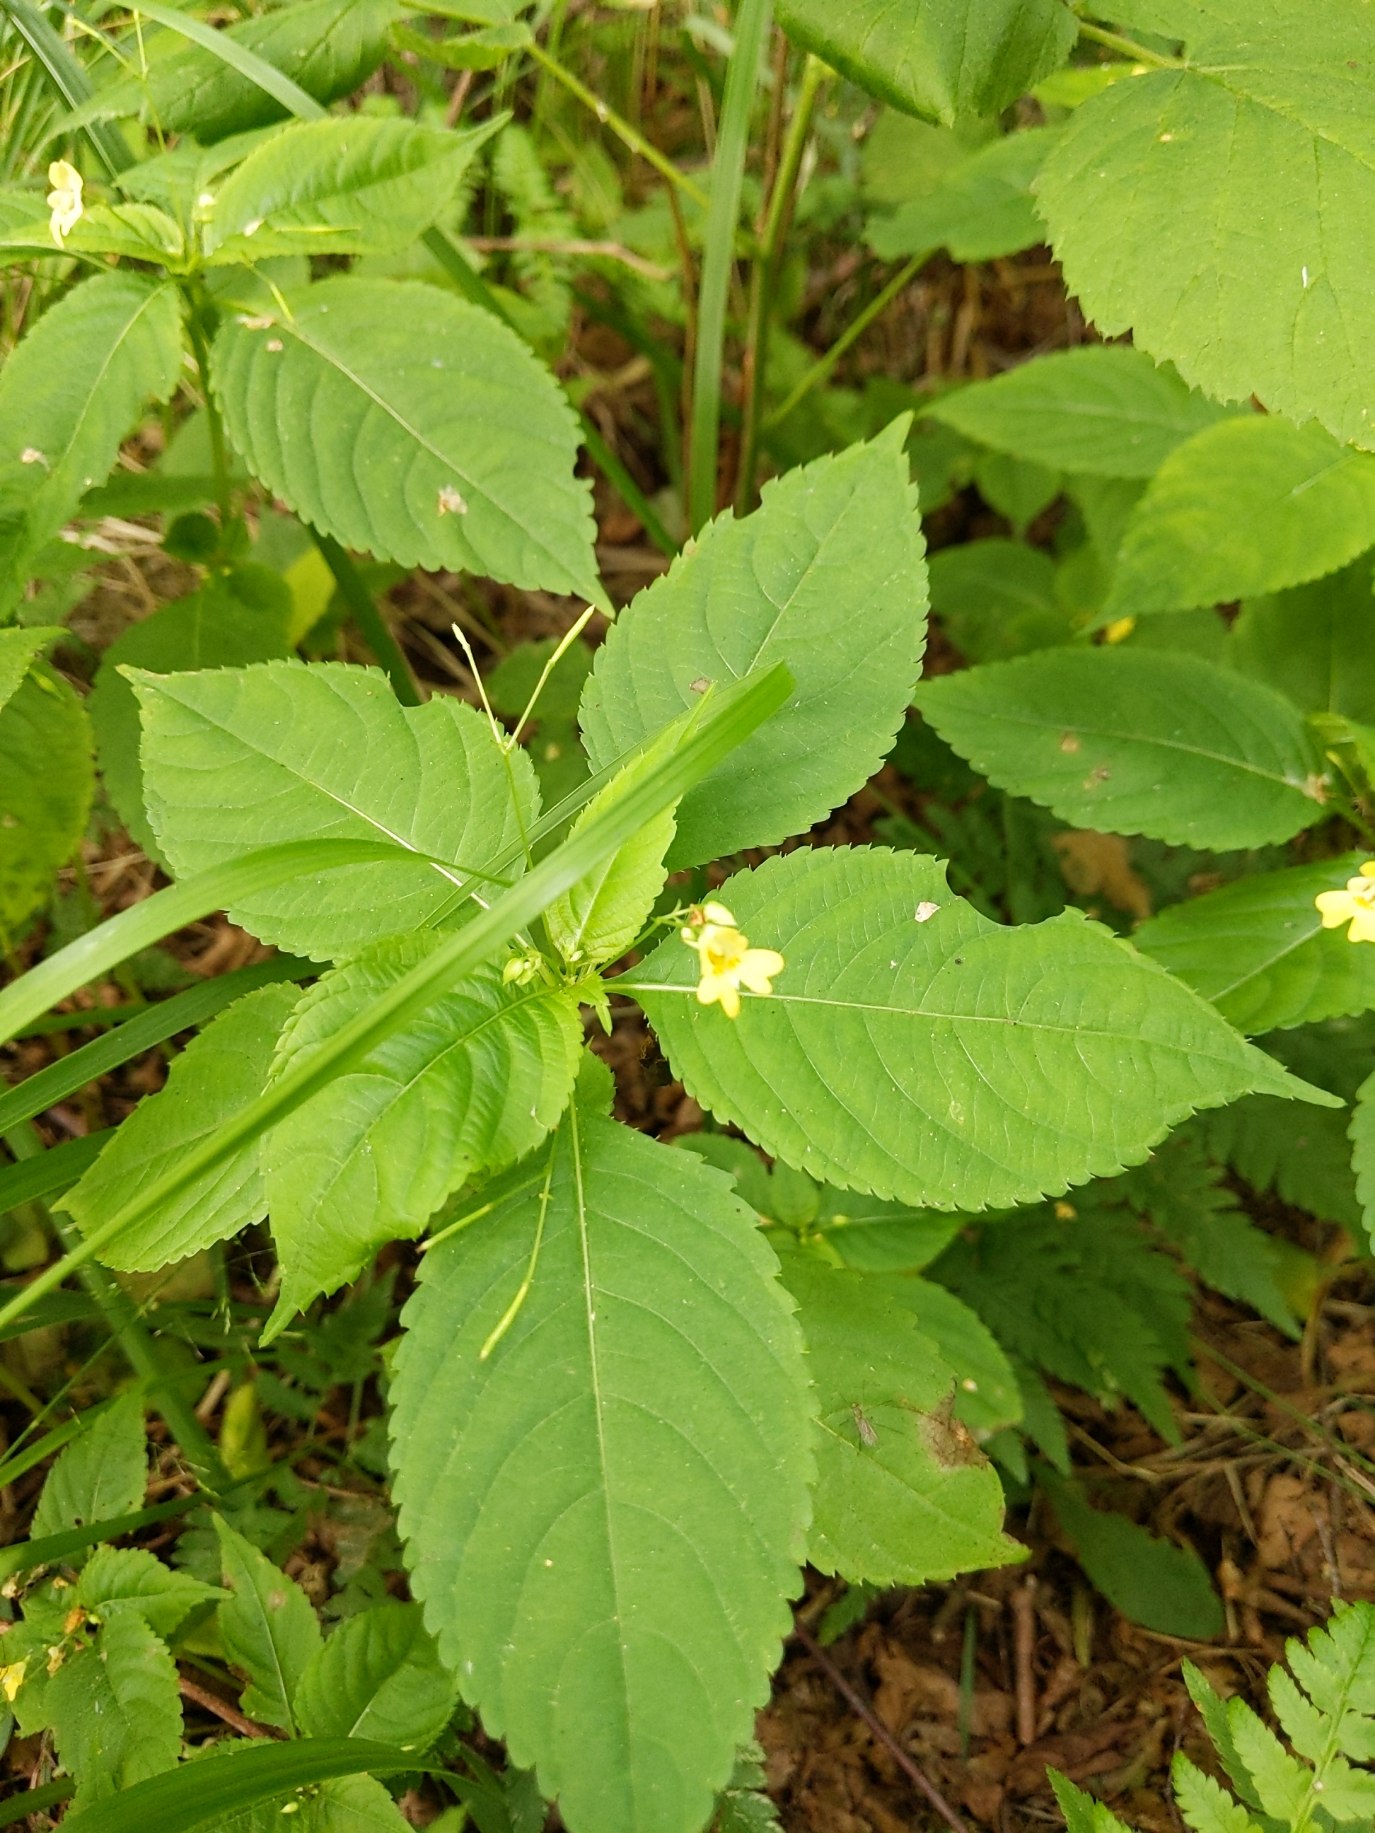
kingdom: Plantae
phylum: Tracheophyta
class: Magnoliopsida
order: Ericales
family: Balsaminaceae
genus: Impatiens
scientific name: Impatiens parviflora
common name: Småblomstret balsamin
